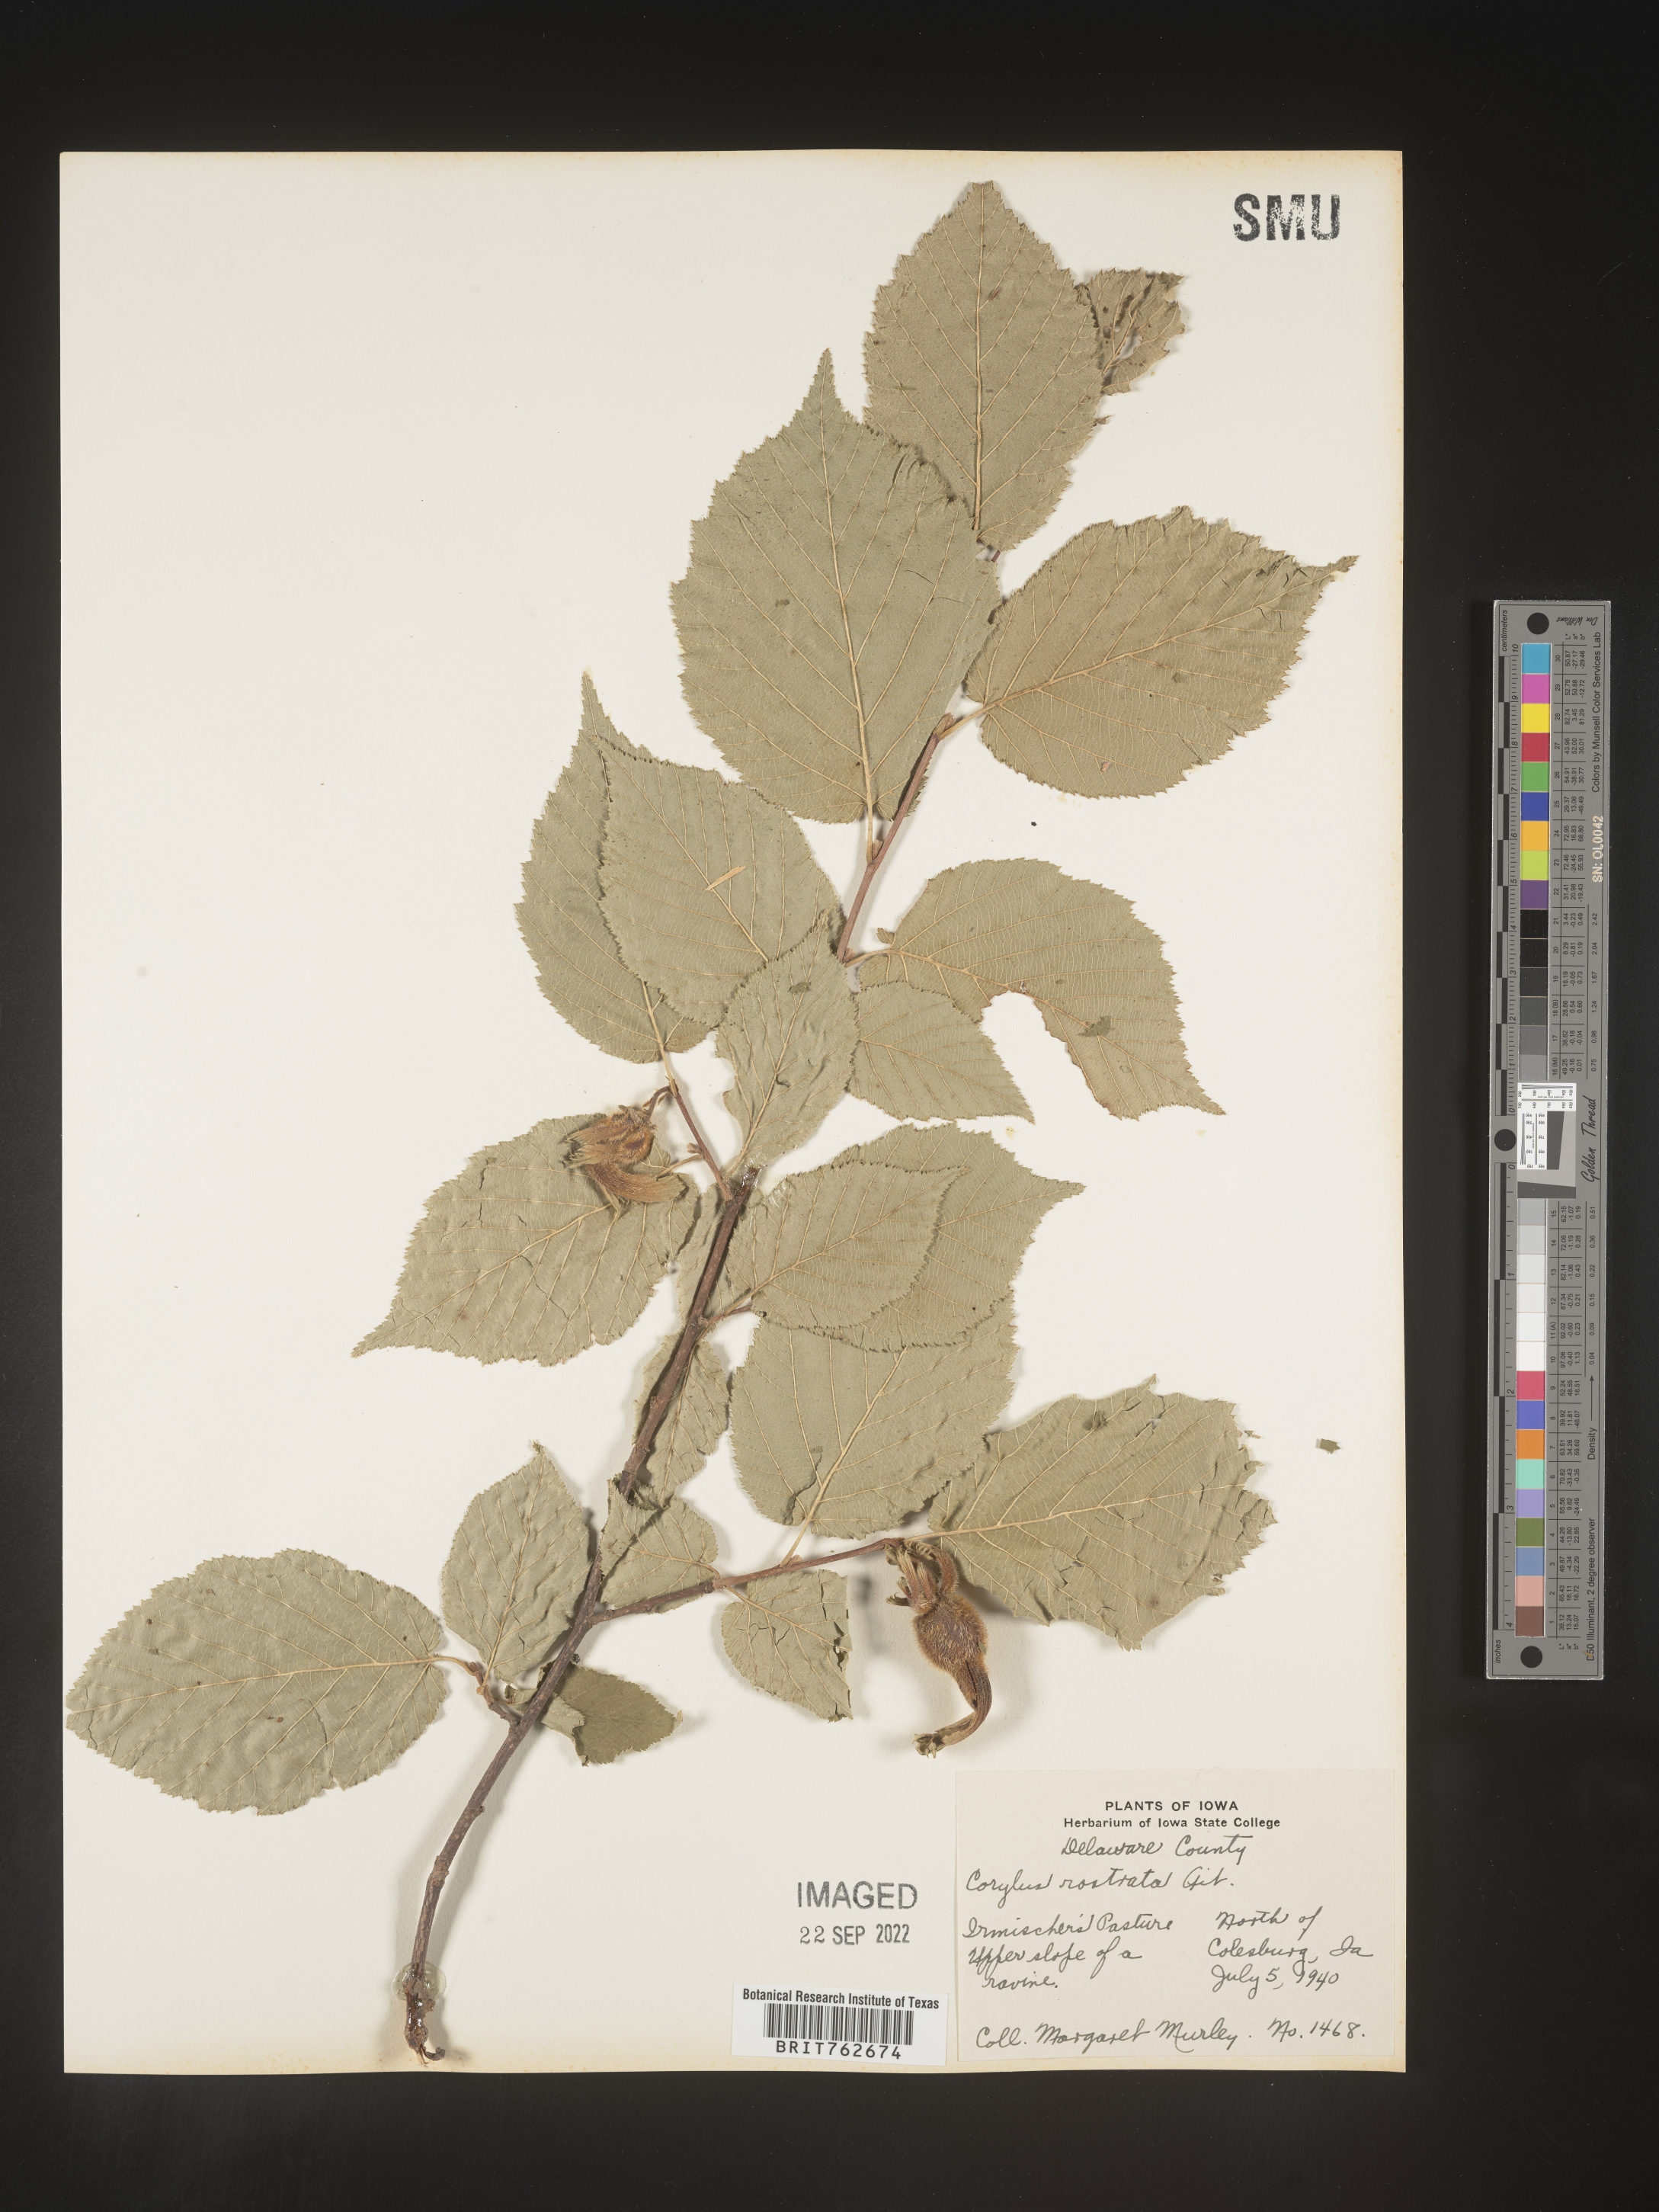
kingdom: Plantae
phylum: Tracheophyta
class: Magnoliopsida
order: Fagales
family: Betulaceae
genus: Corylus
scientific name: Corylus cornuta
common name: Beaked hazel
